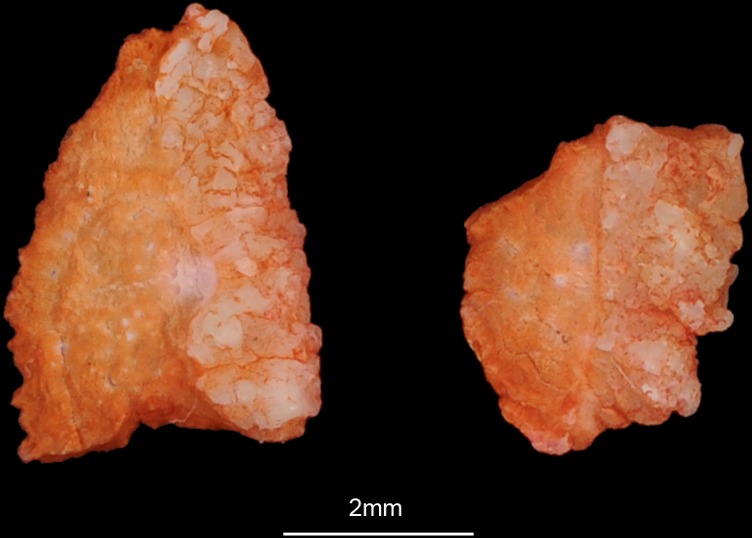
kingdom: Animalia
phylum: Chordata
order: Mugiliformes
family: Mugilidae
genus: Mugil
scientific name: Mugil cephalus
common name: Grey mullet
